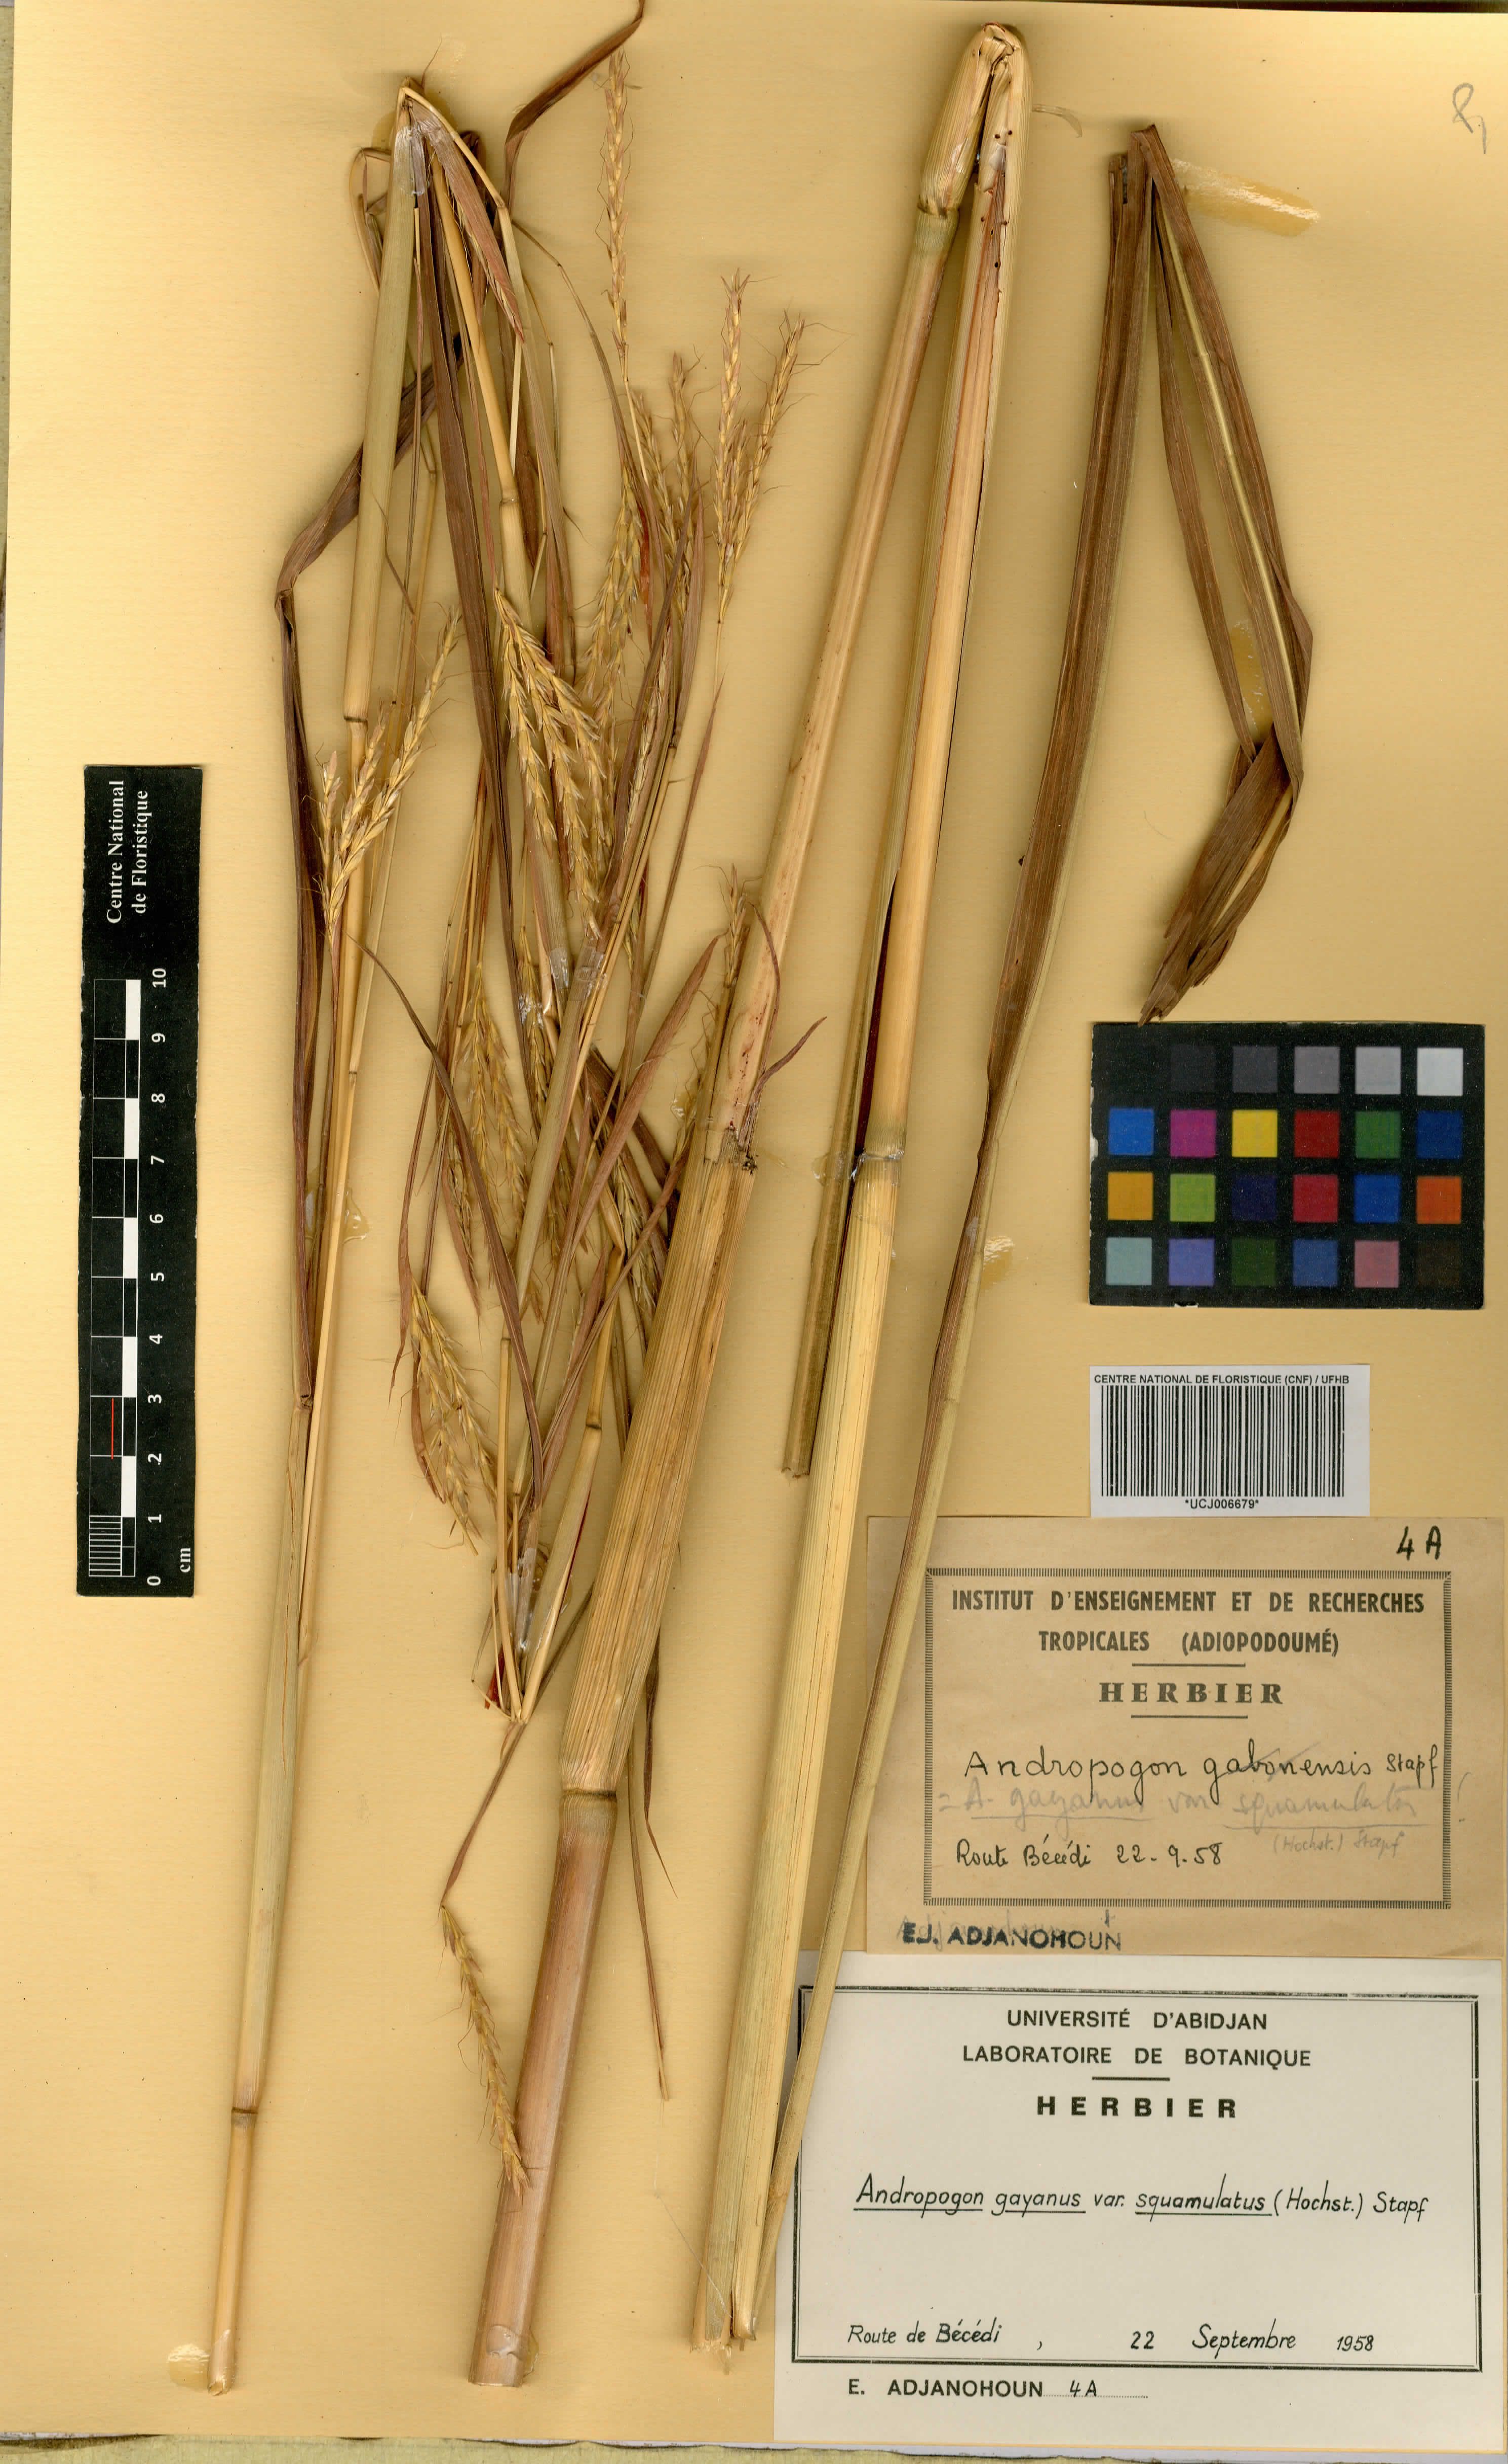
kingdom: Plantae
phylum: Tracheophyta
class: Liliopsida
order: Poales
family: Poaceae
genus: Andropogon
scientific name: Andropogon gayanus
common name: Tambuki grass
